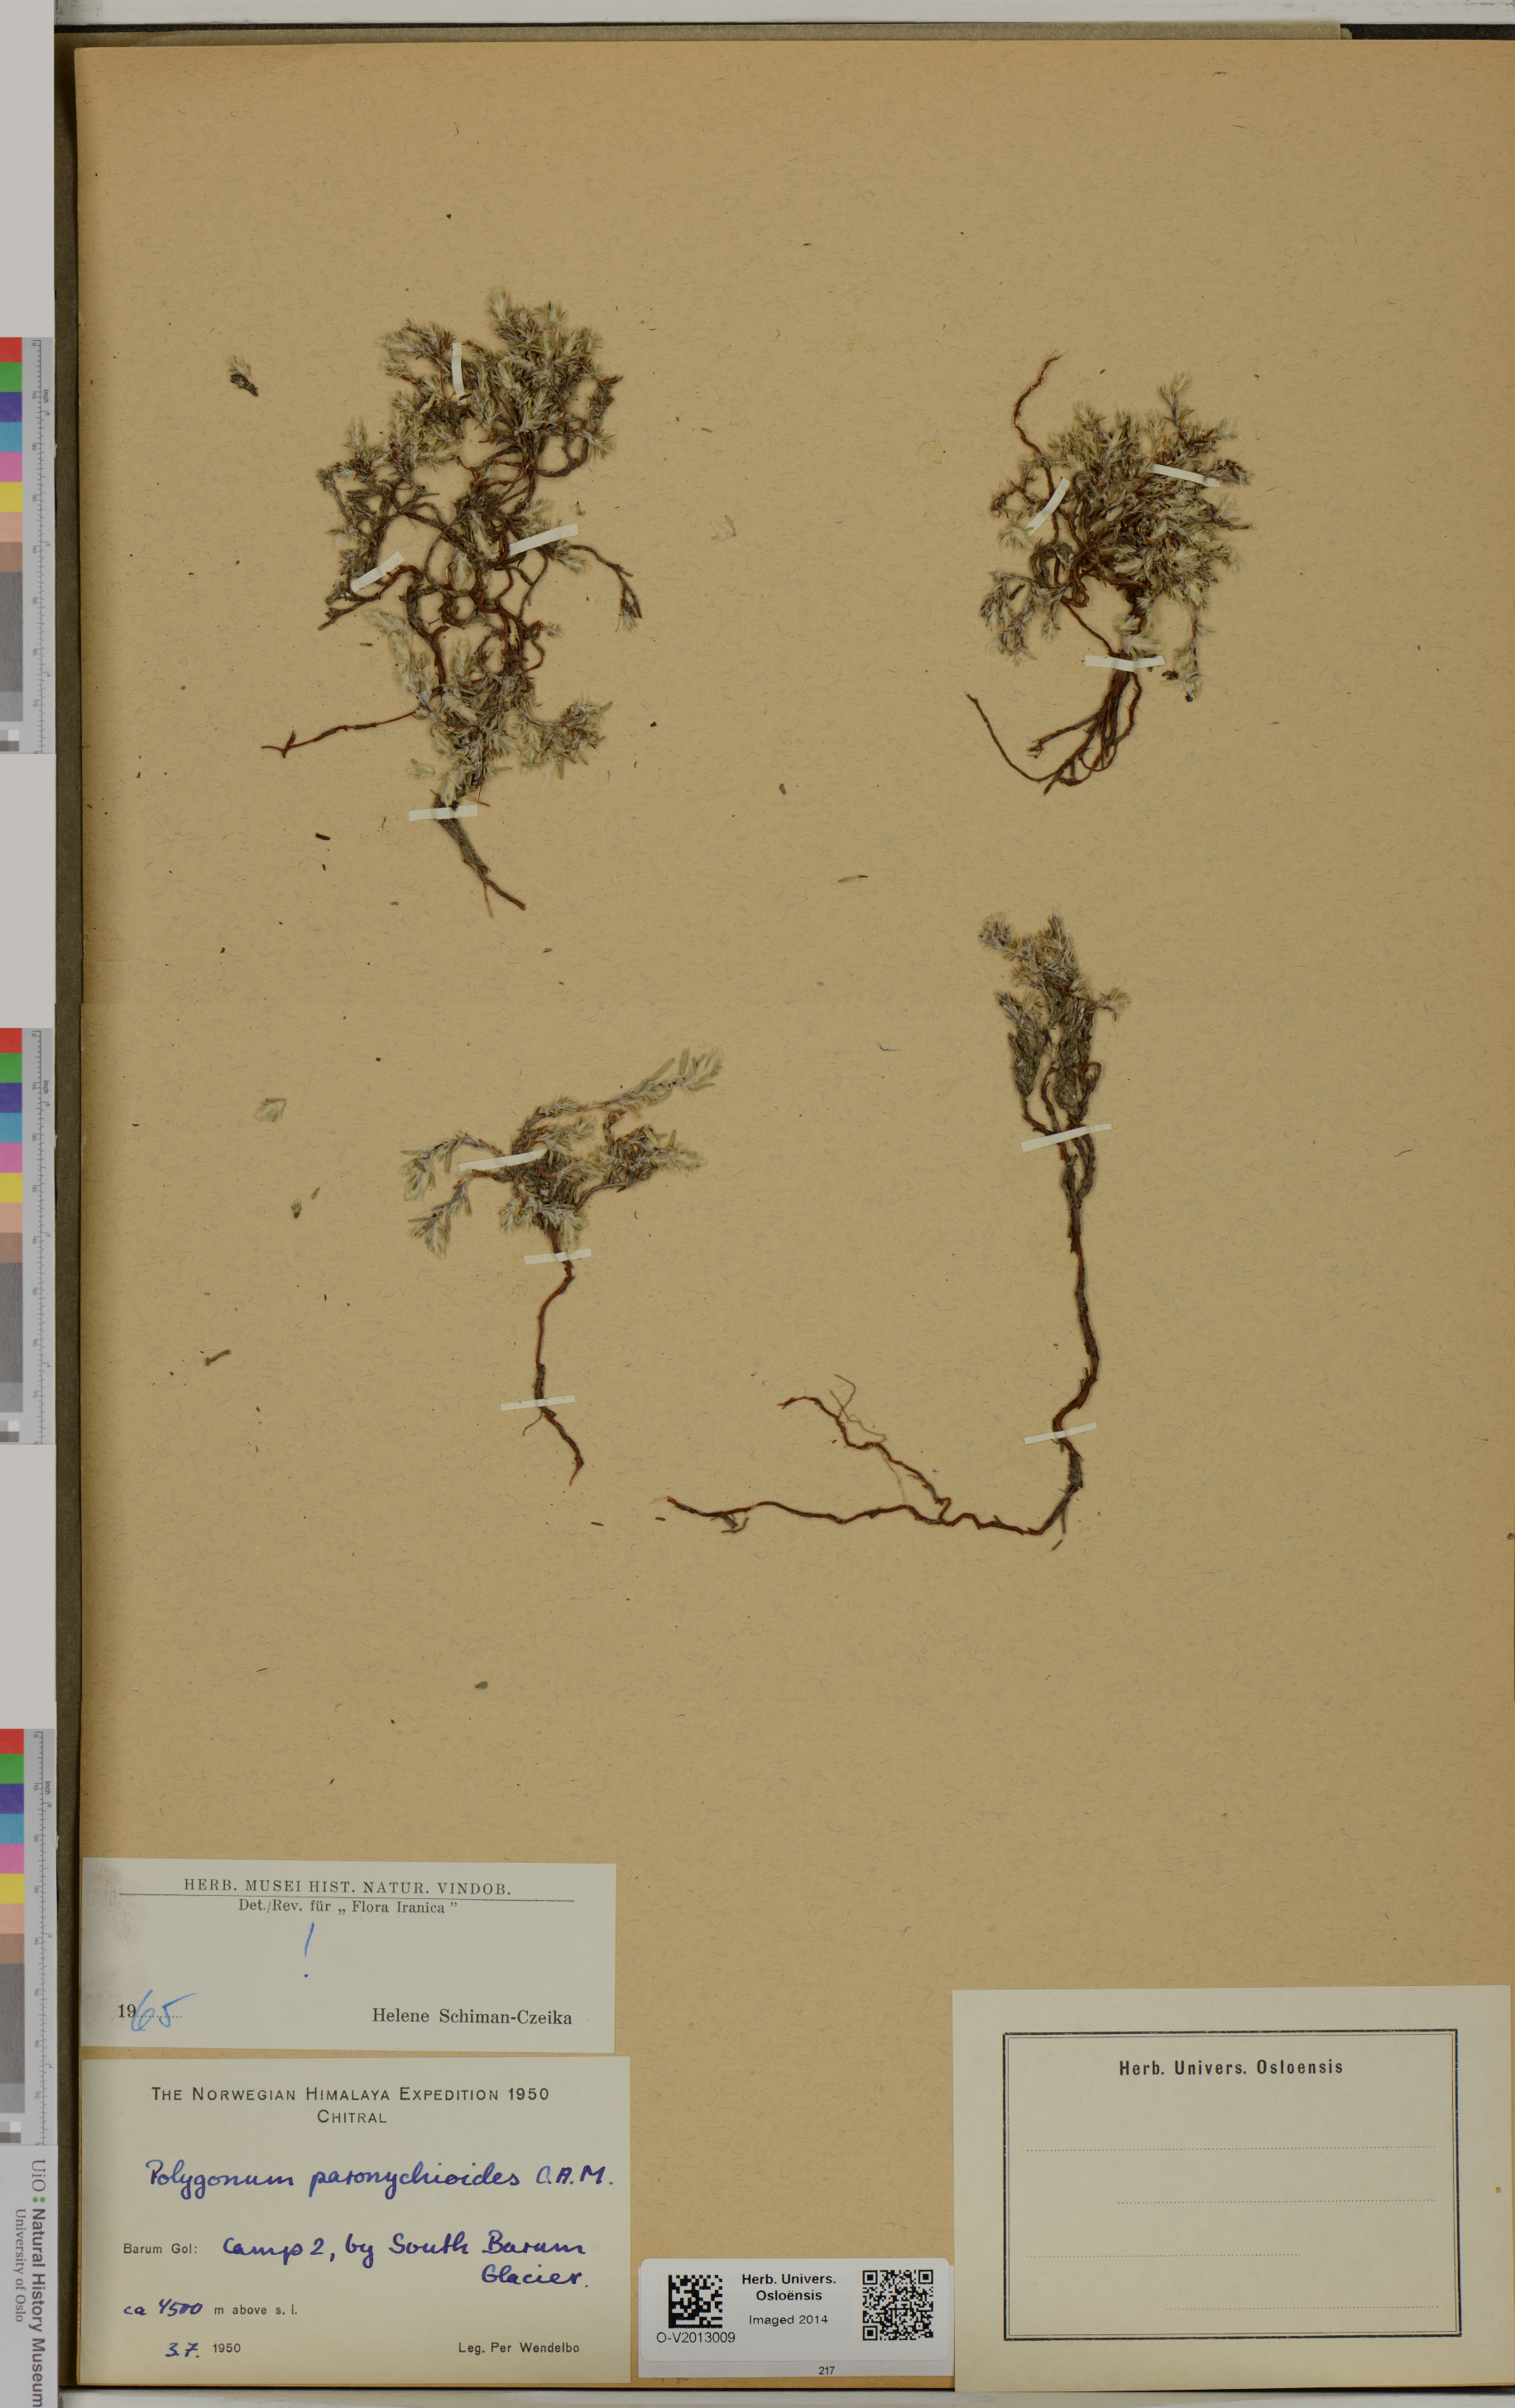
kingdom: Plantae
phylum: Tracheophyta
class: Magnoliopsida
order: Caryophyllales
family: Polygonaceae
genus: Polygonum
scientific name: Polygonum paronychioides
